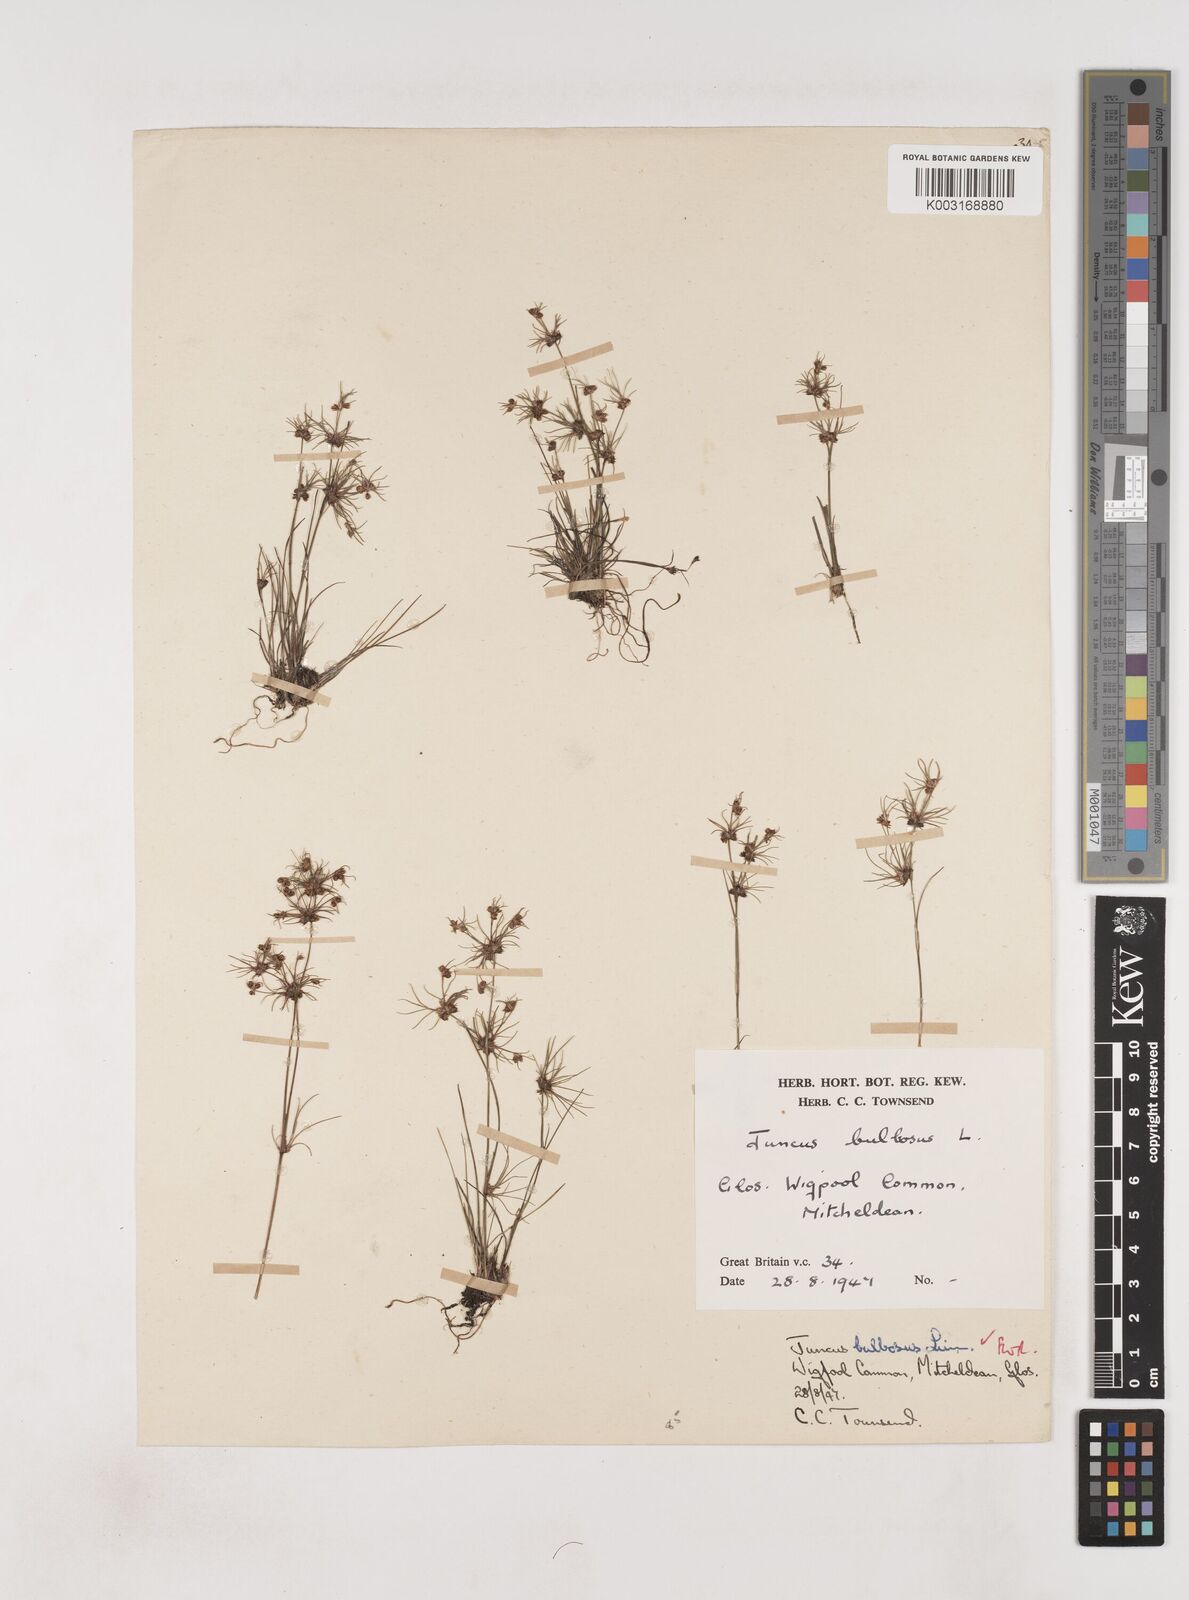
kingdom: Plantae
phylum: Tracheophyta
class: Liliopsida
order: Poales
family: Juncaceae
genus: Juncus
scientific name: Juncus bulbosus
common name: Bulbous rush
